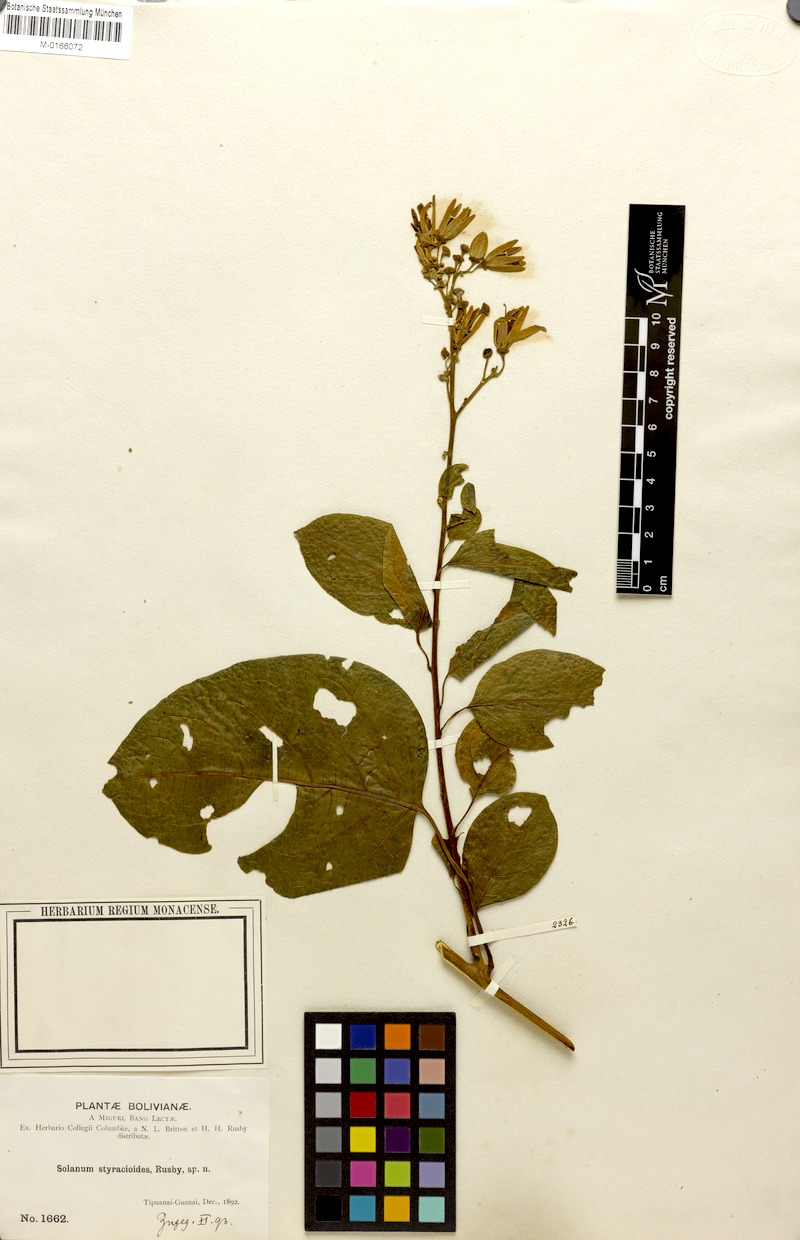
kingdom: Plantae
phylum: Tracheophyta
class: Magnoliopsida
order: Solanales
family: Solanaceae
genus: Solanum
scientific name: Solanum uncinellum
